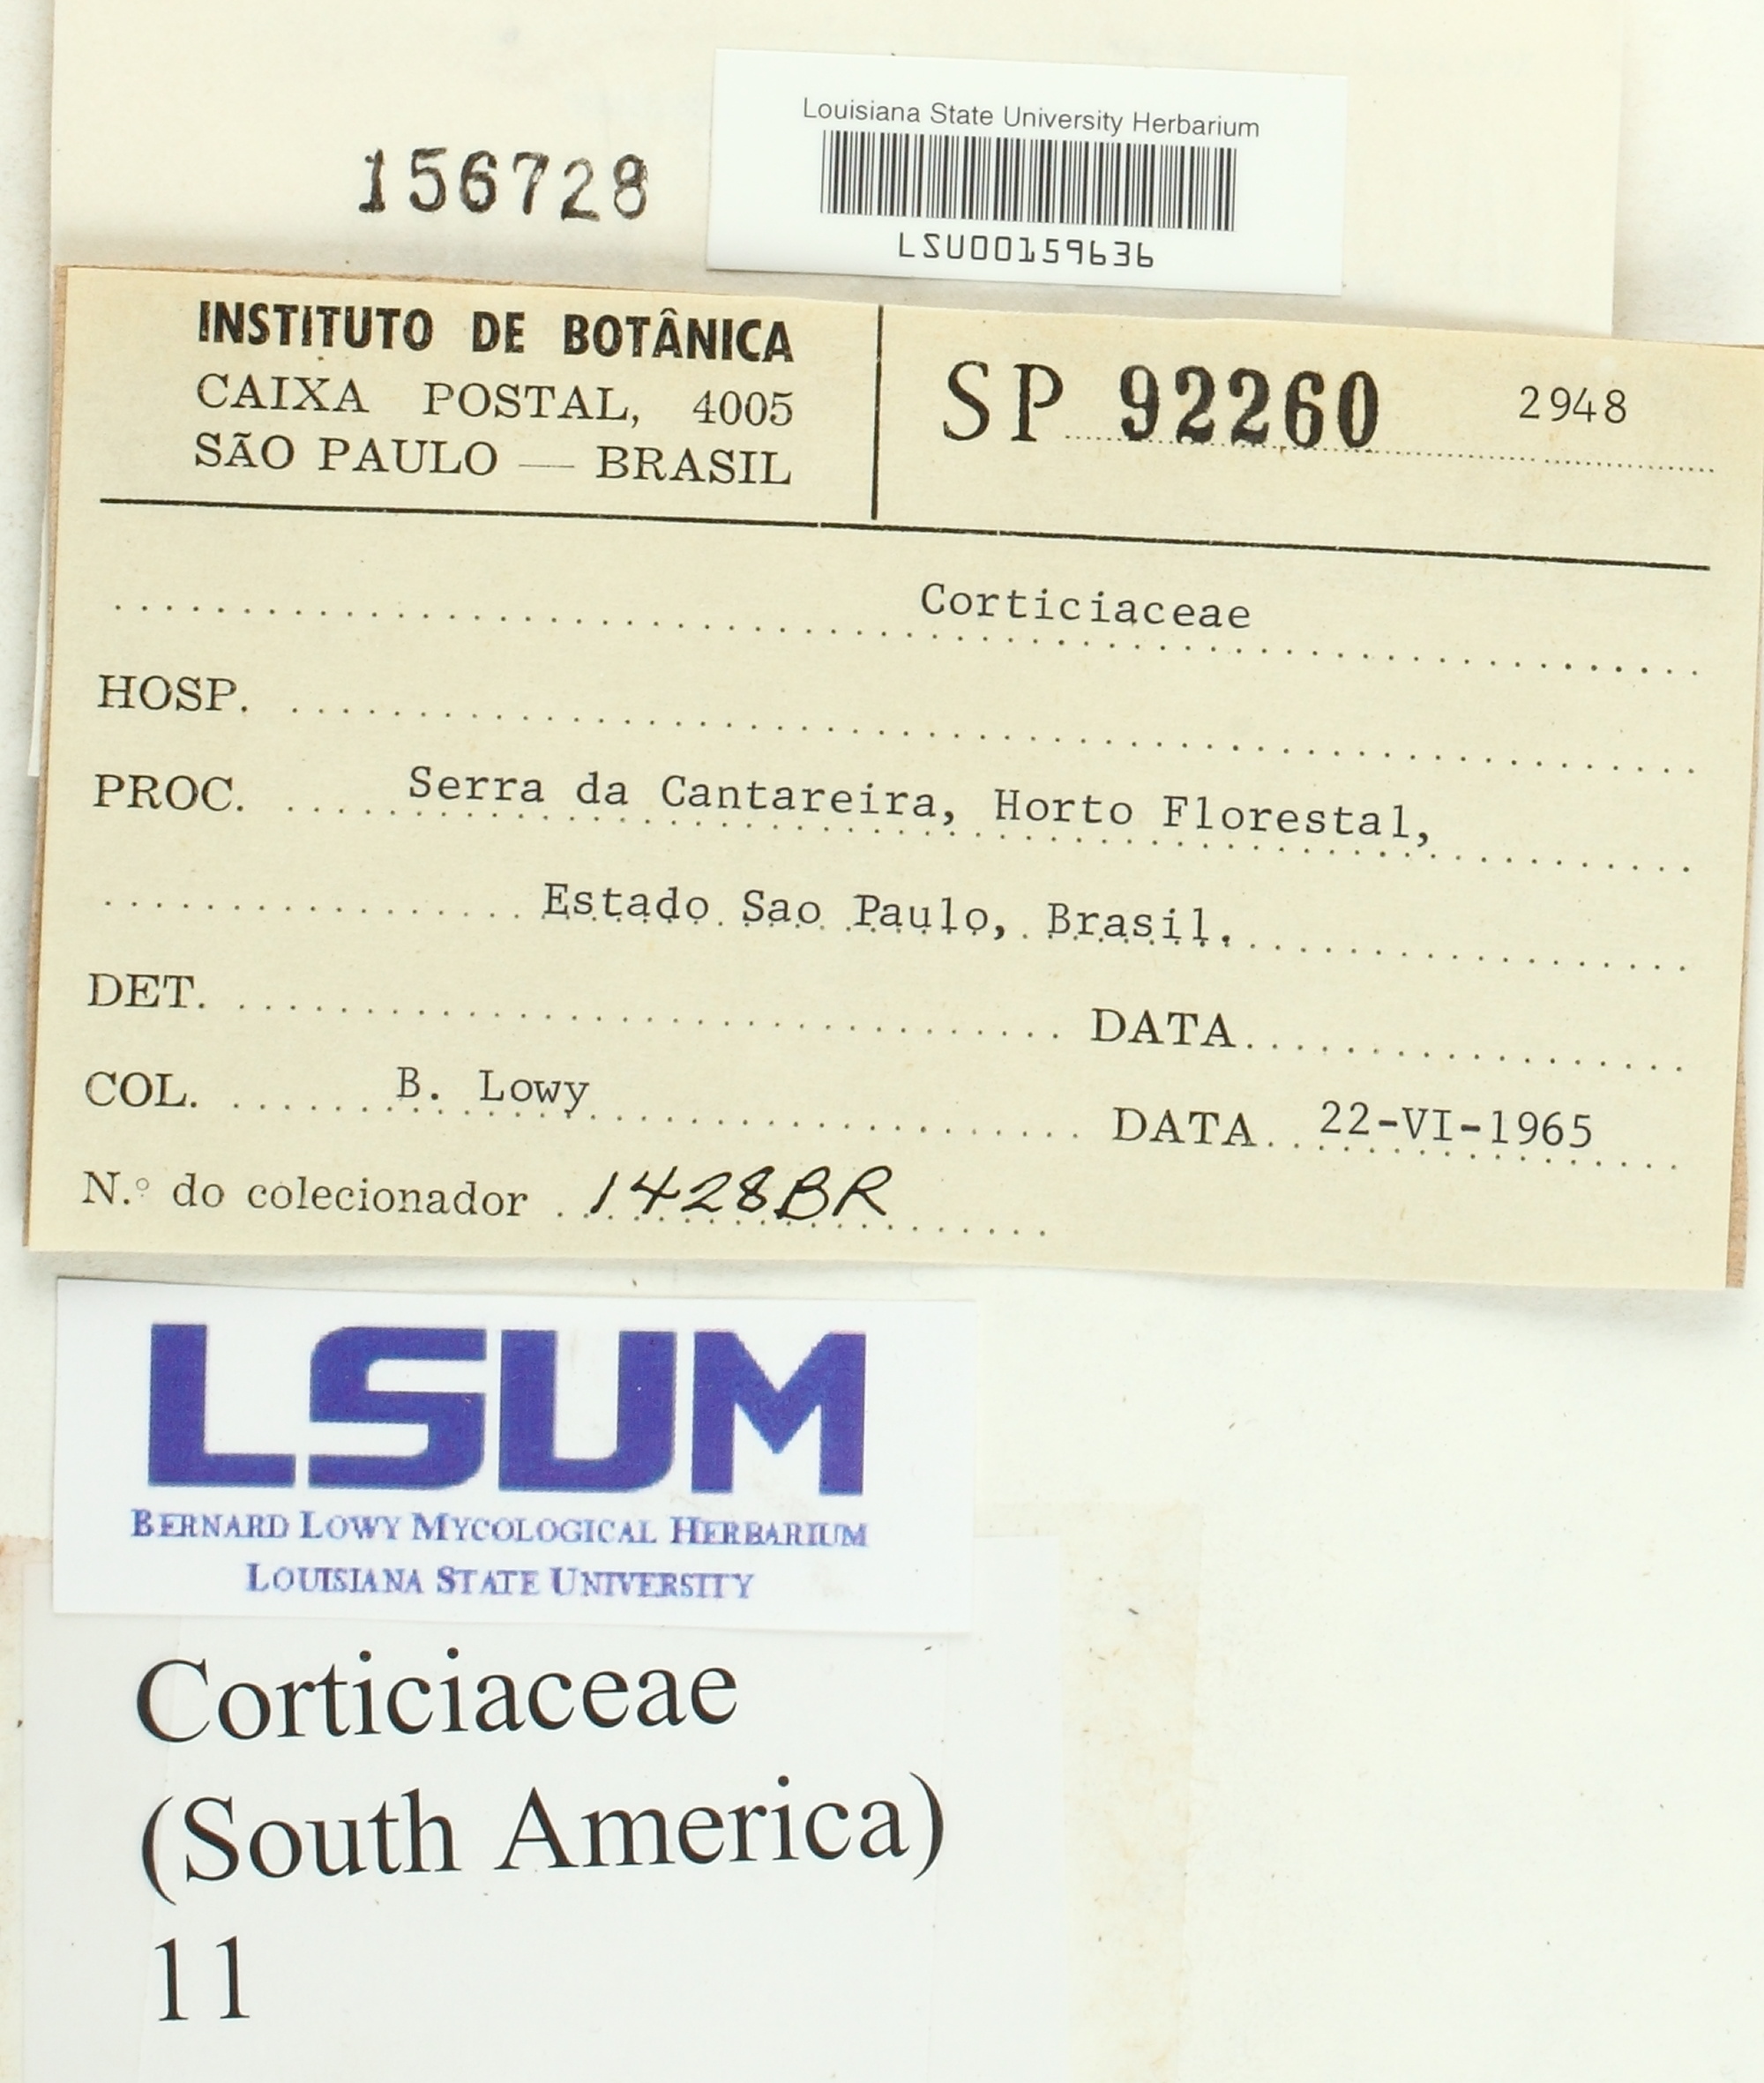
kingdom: Fungi
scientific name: Fungi
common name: Fungi
